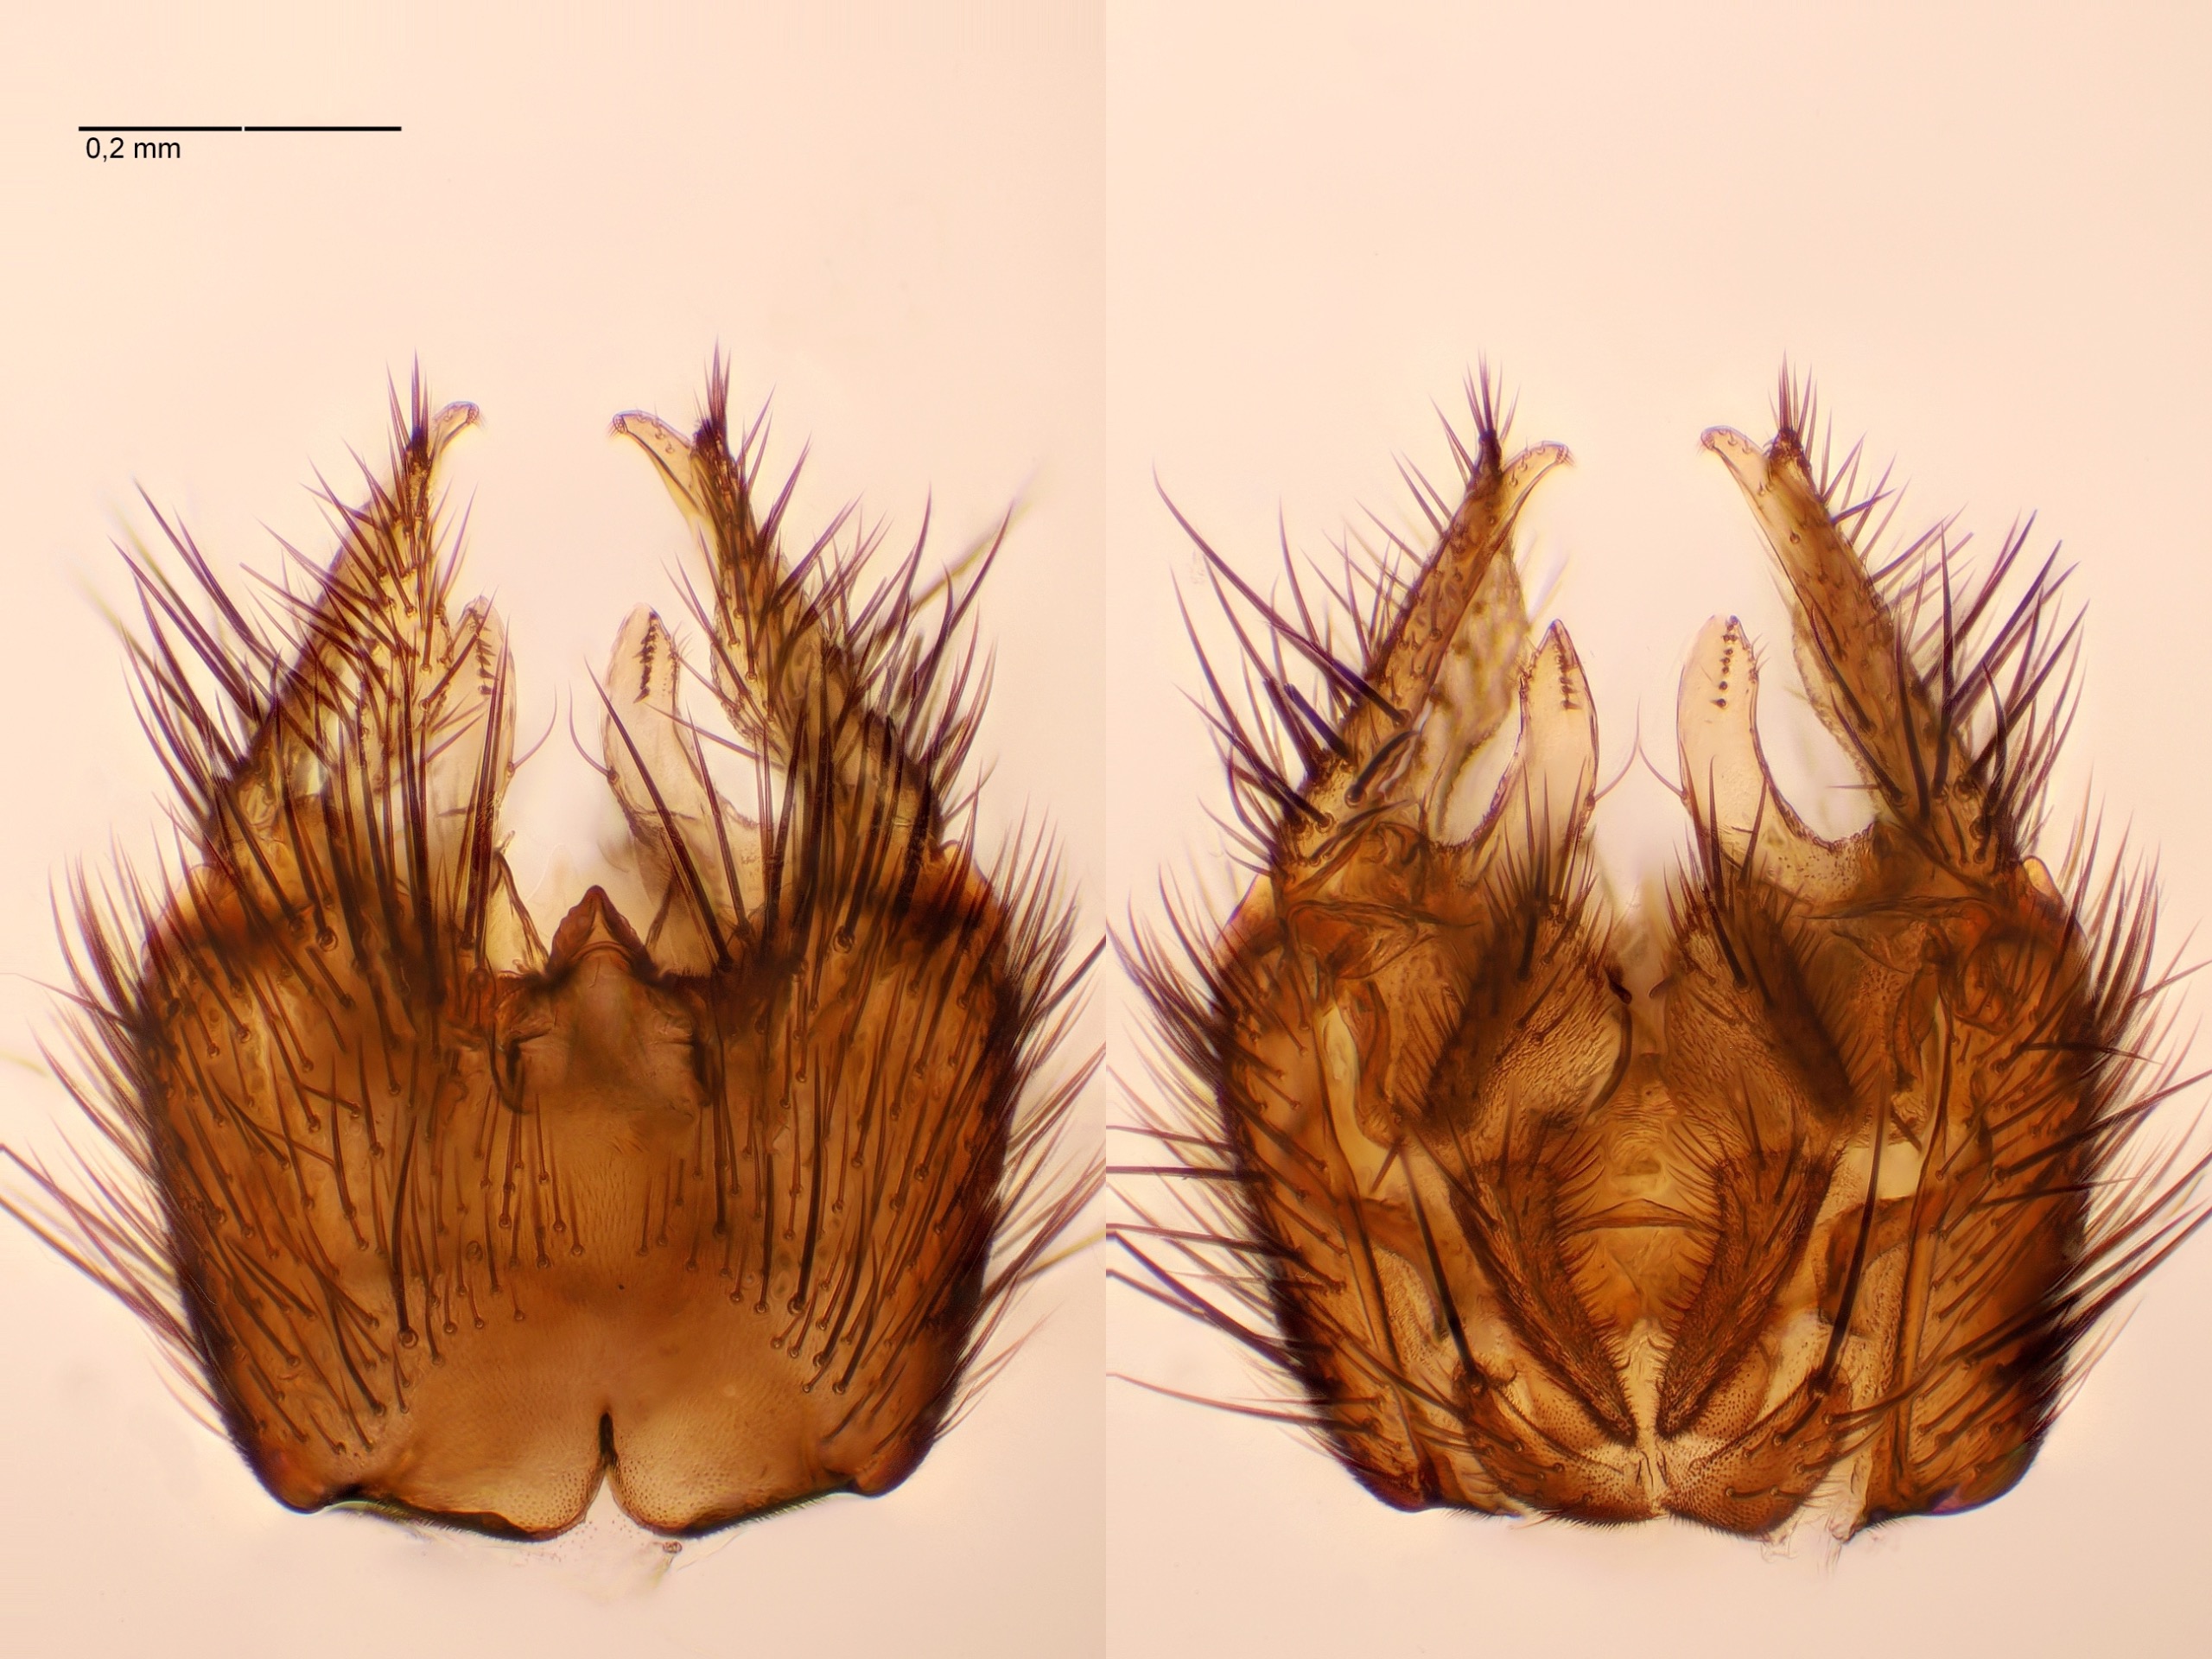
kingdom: Animalia
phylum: Arthropoda
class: Insecta
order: Diptera
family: Mycetophilidae
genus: Stigmatomeria
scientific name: Stigmatomeria crassicorne
